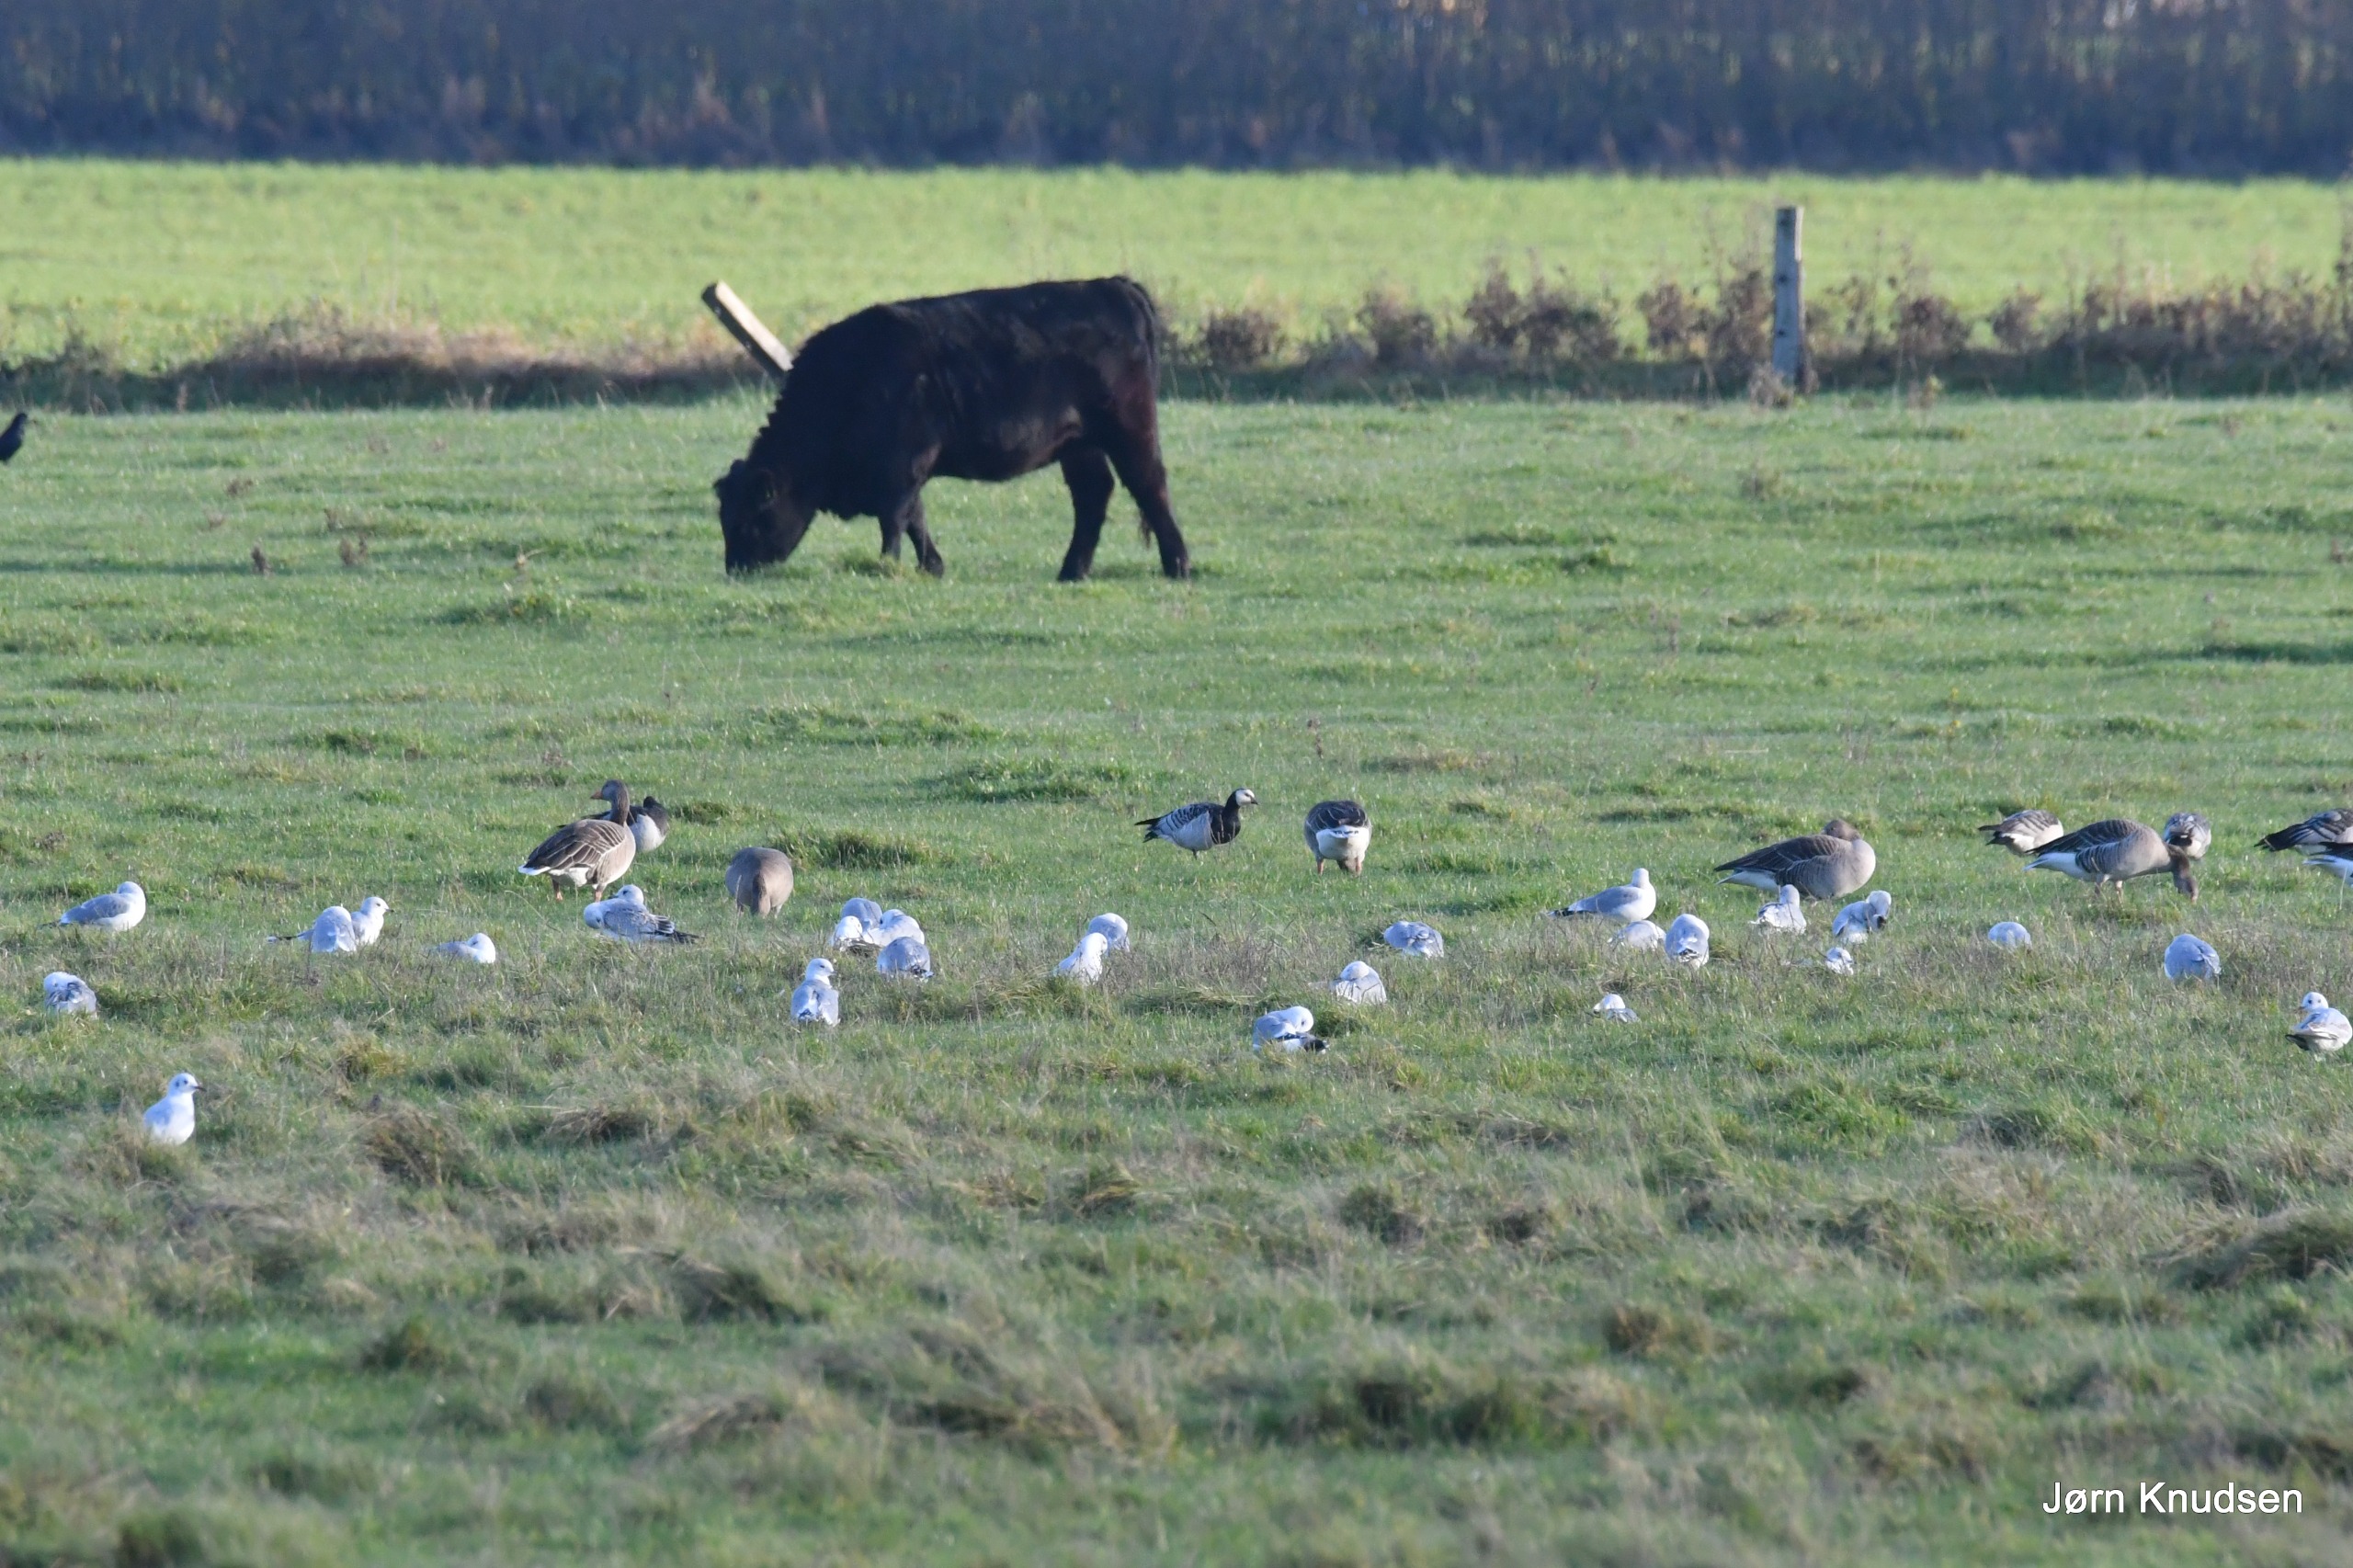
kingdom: Animalia
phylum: Chordata
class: Aves
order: Anseriformes
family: Anatidae
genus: Branta
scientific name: Branta leucopsis
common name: Bramgås
